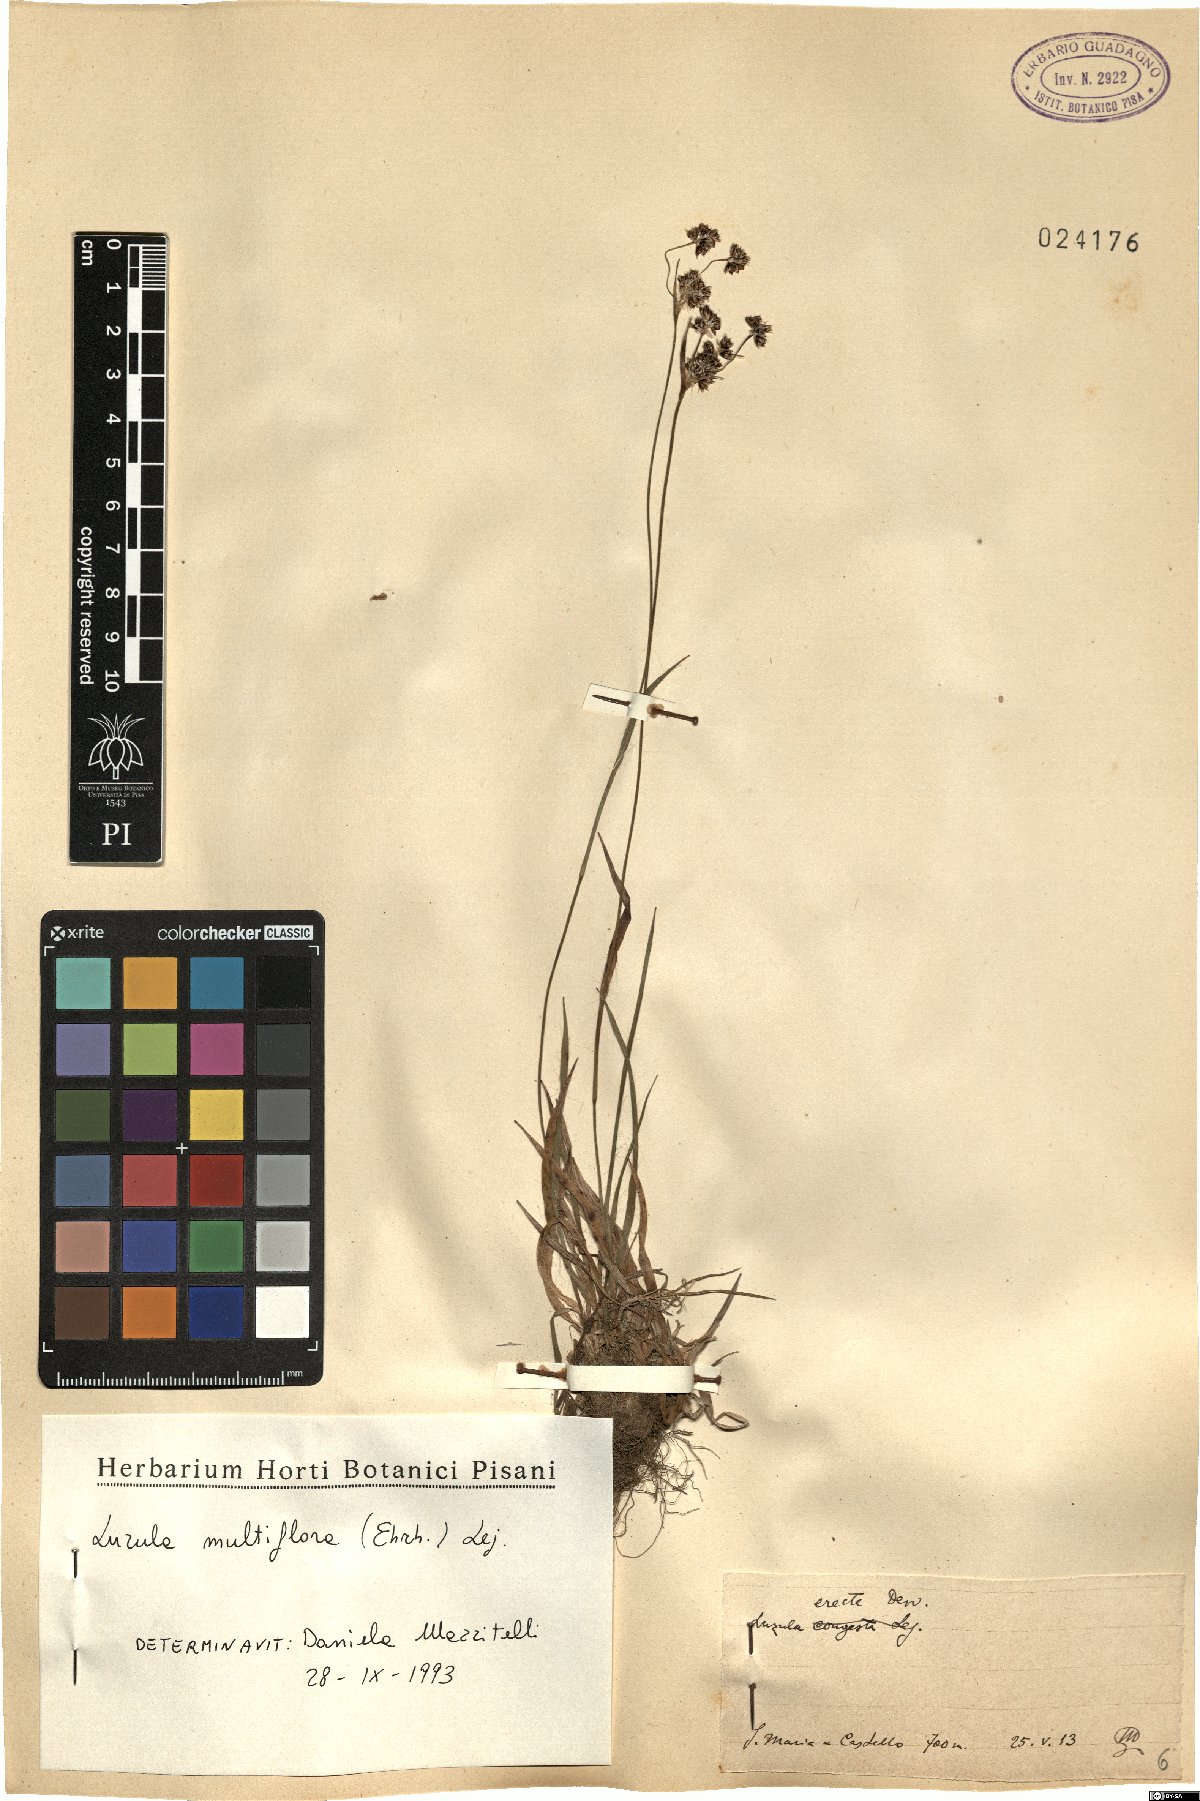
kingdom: Plantae
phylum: Tracheophyta
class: Liliopsida
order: Poales
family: Juncaceae
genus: Luzula
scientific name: Luzula multiflora
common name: Heath wood-rush
